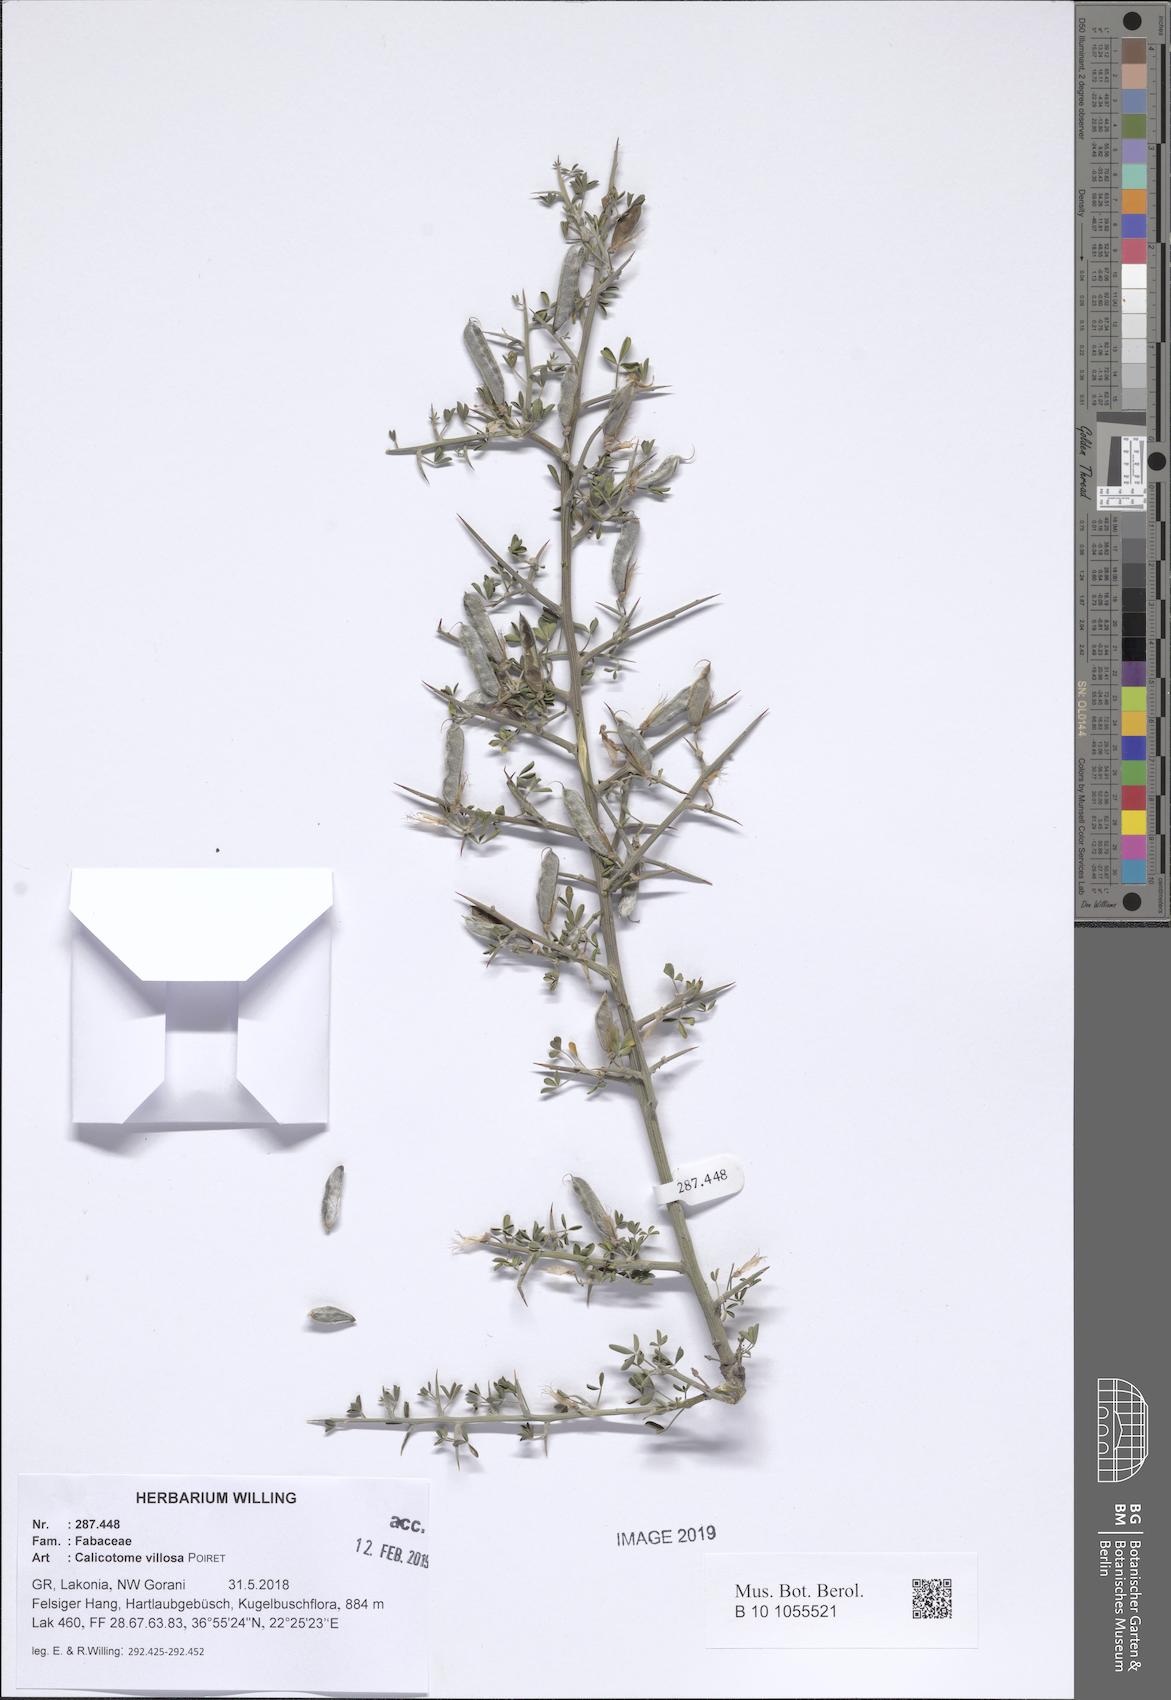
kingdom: Plantae
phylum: Tracheophyta
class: Magnoliopsida
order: Fabales
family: Fabaceae
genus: Calicotome
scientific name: Calicotome villosa
